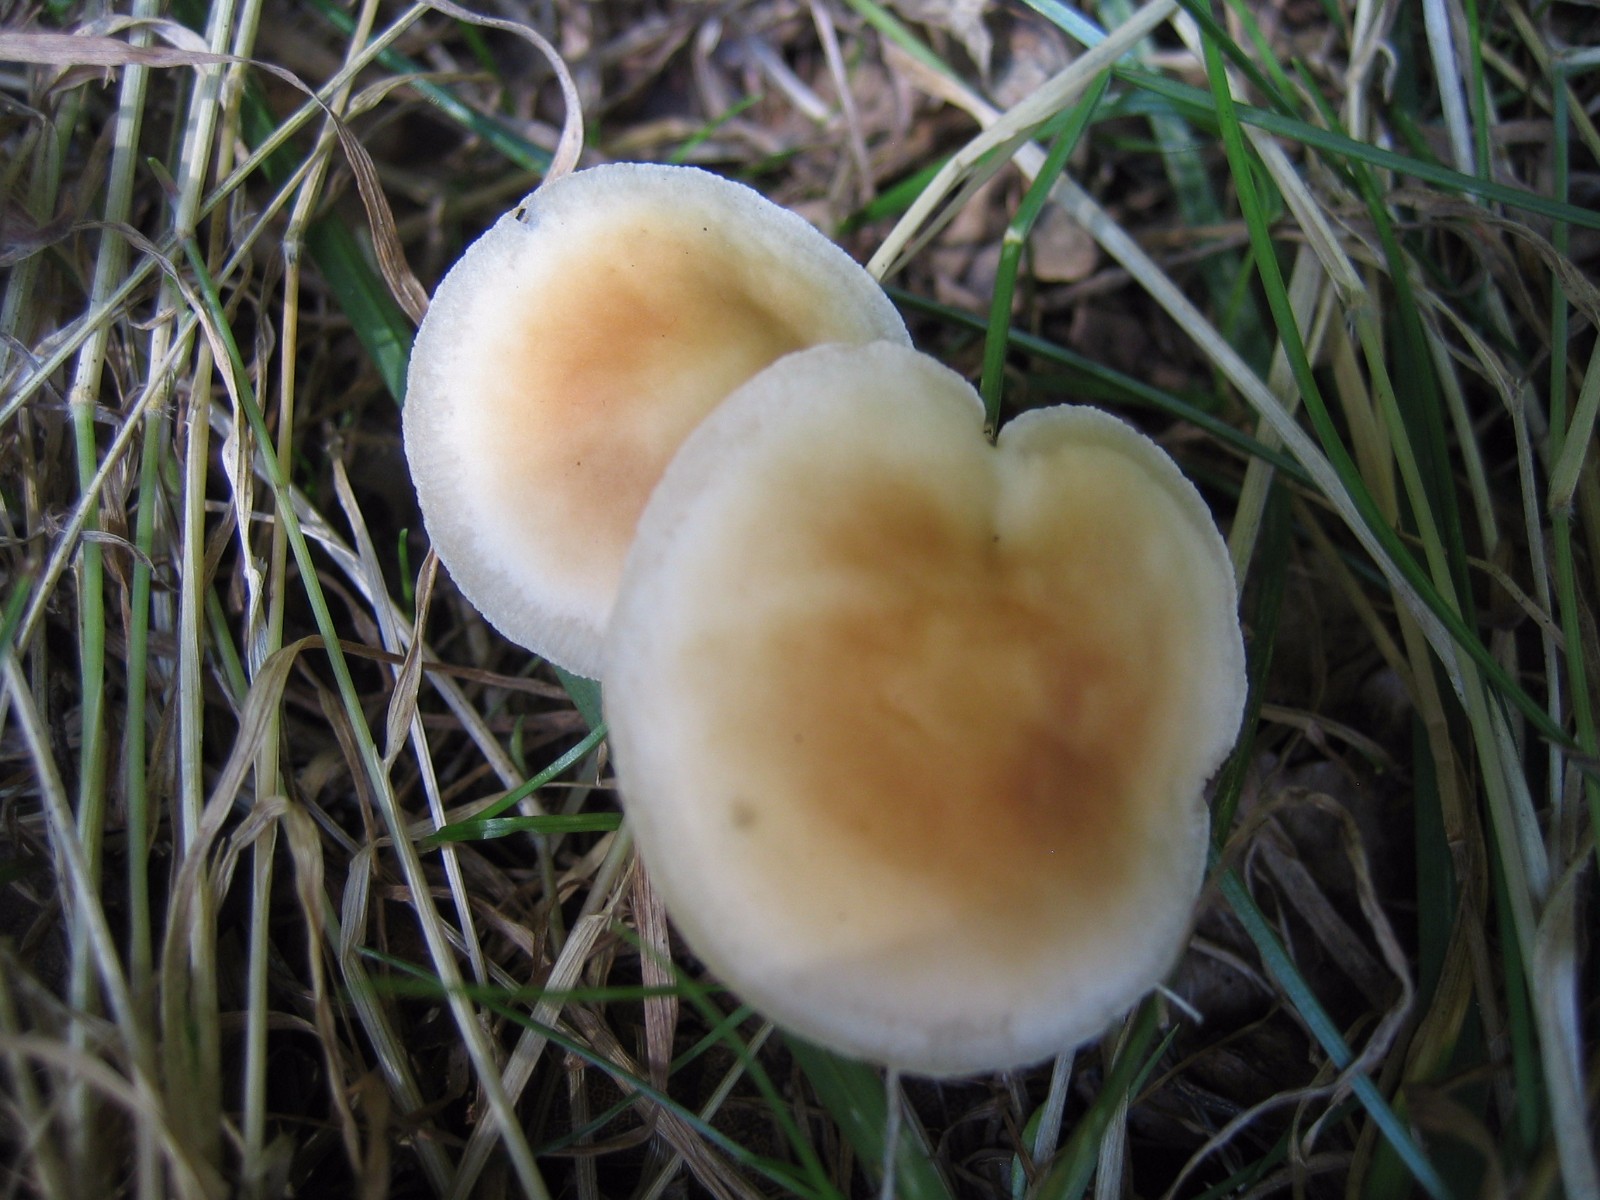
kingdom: Fungi
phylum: Basidiomycota
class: Agaricomycetes
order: Agaricales
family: Omphalotaceae
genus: Gymnopus
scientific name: Gymnopus dryophilus
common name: løv-fladhat
